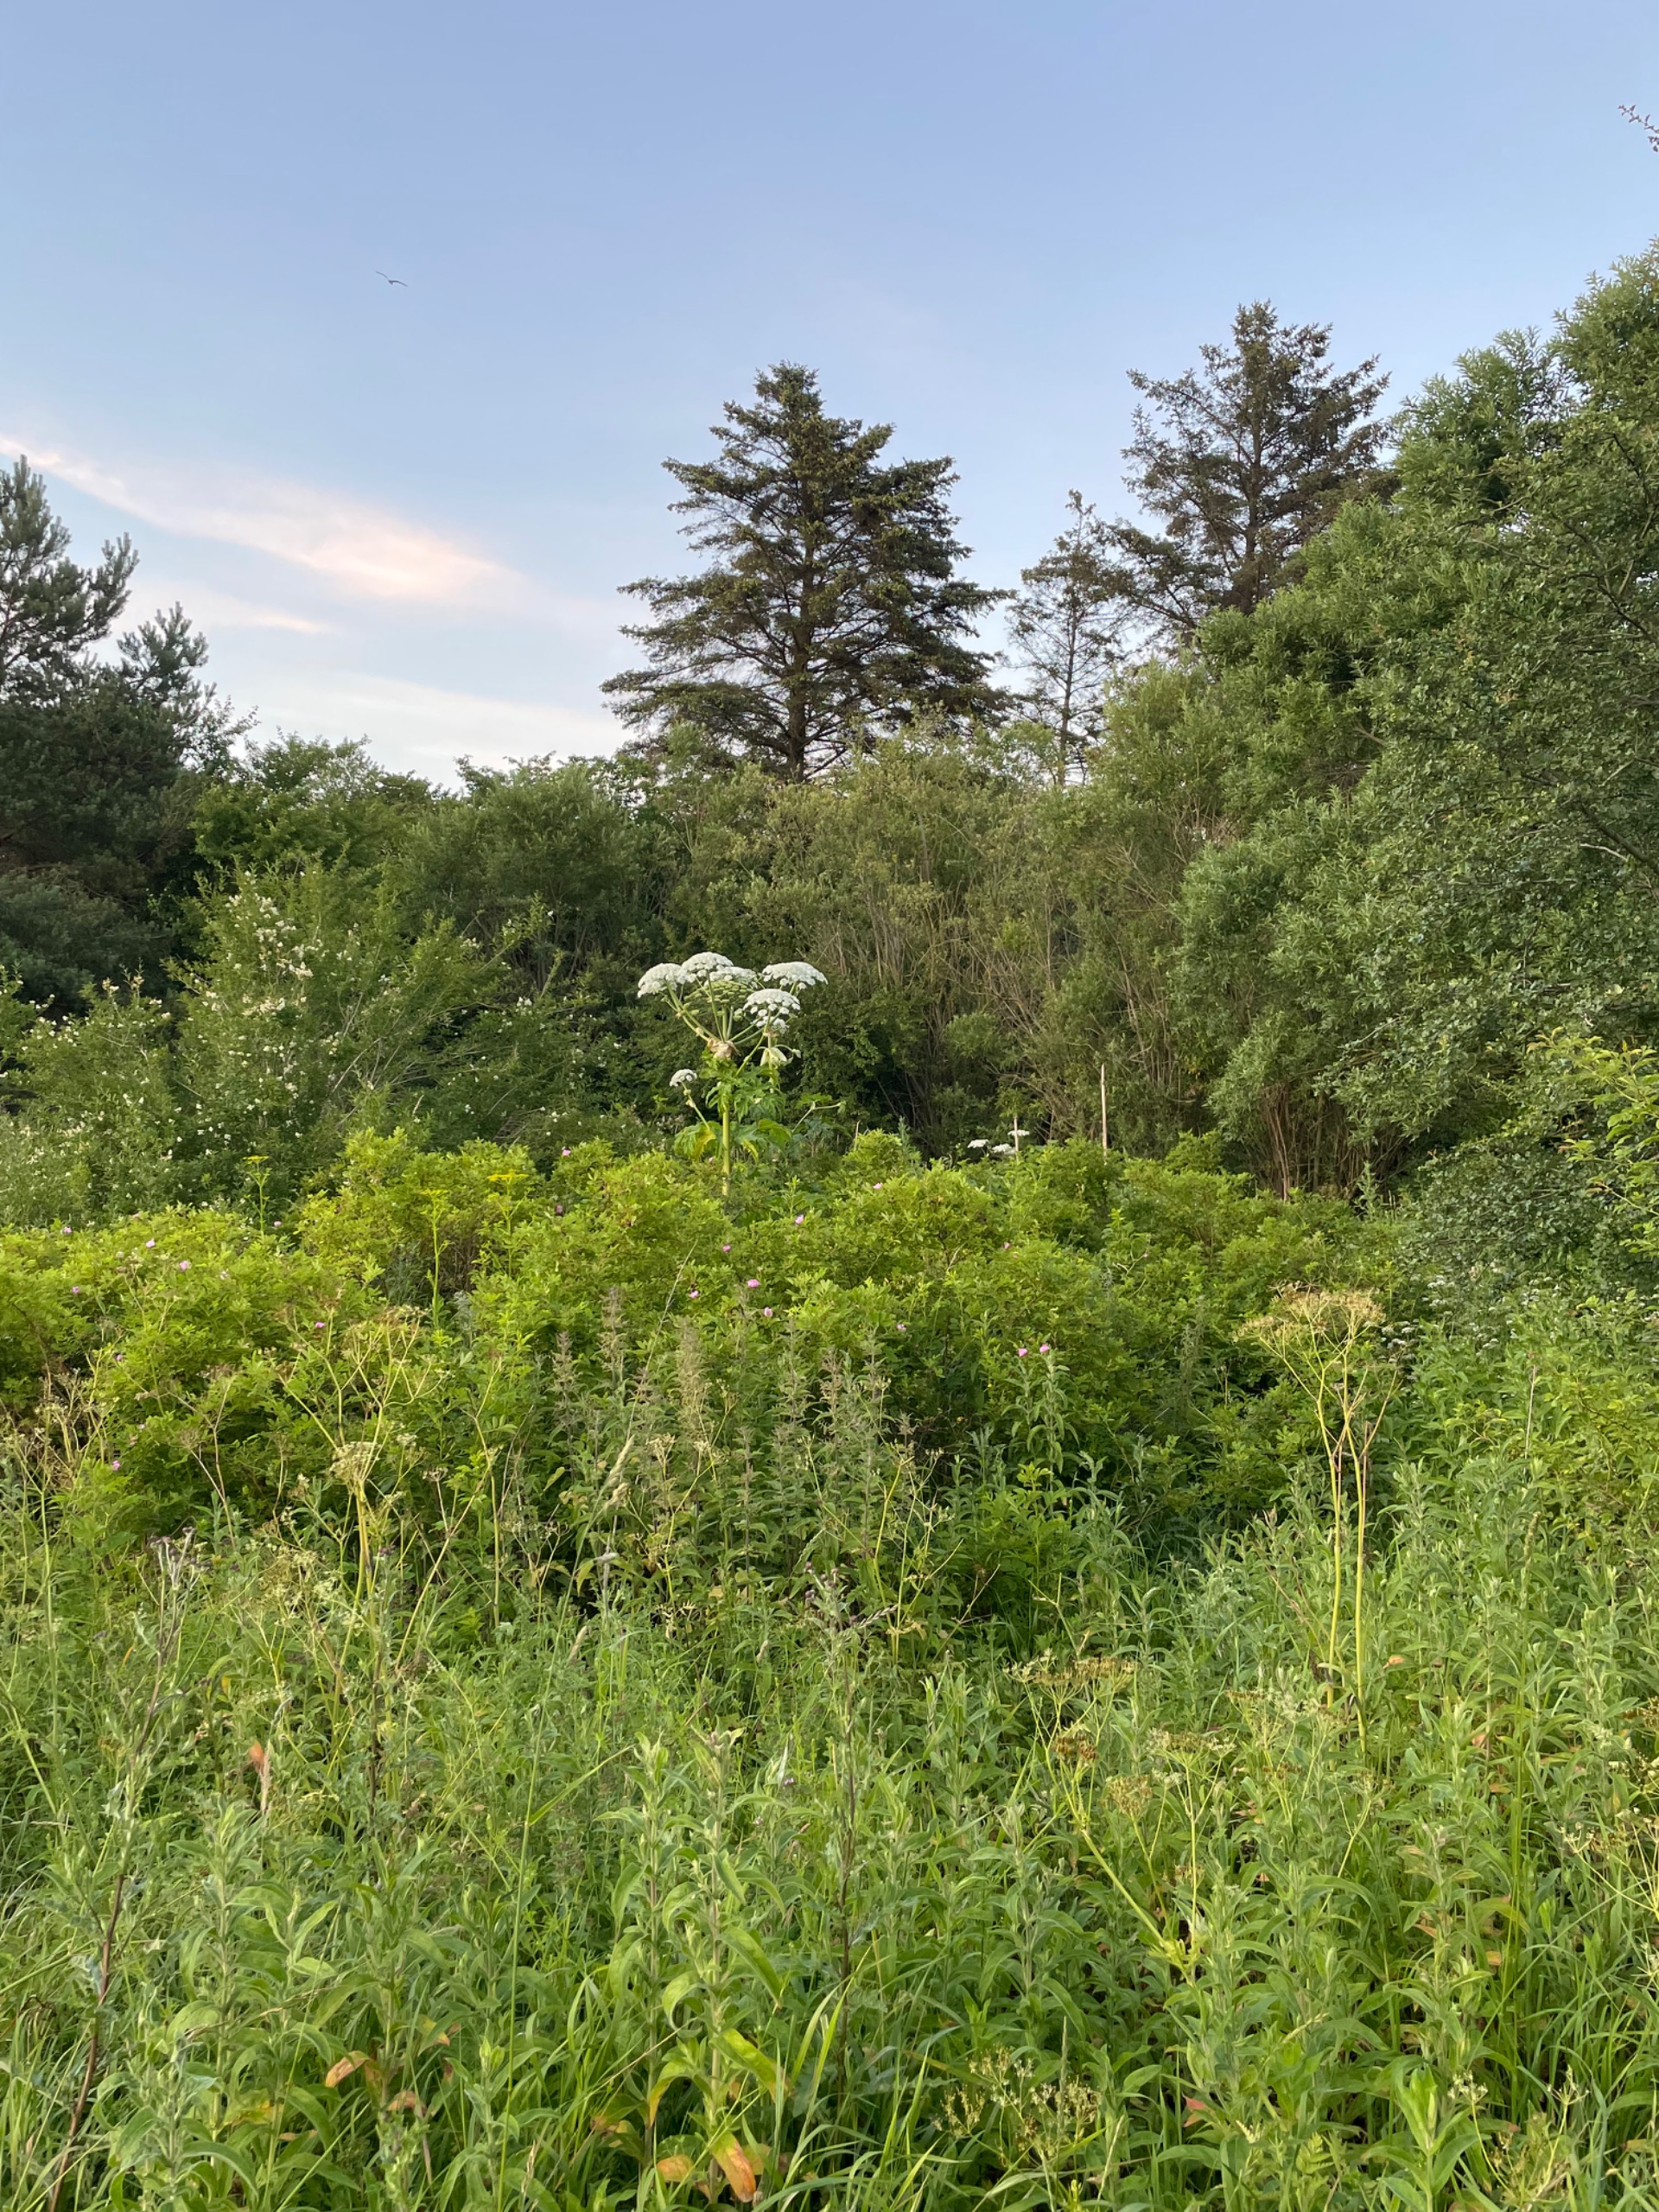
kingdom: Plantae
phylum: Tracheophyta
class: Magnoliopsida
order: Apiales
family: Apiaceae
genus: Heracleum
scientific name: Heracleum mantegazzianum
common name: Kæmpe-bjørneklo
